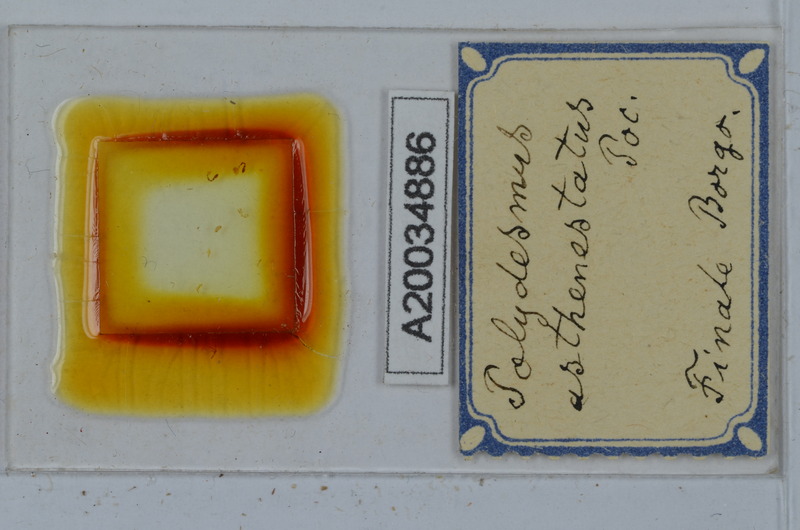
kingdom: Animalia
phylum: Arthropoda
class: Diplopoda
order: Polydesmida
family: Polydesmidae
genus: Polydesmus
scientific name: Polydesmus asthenestatus
